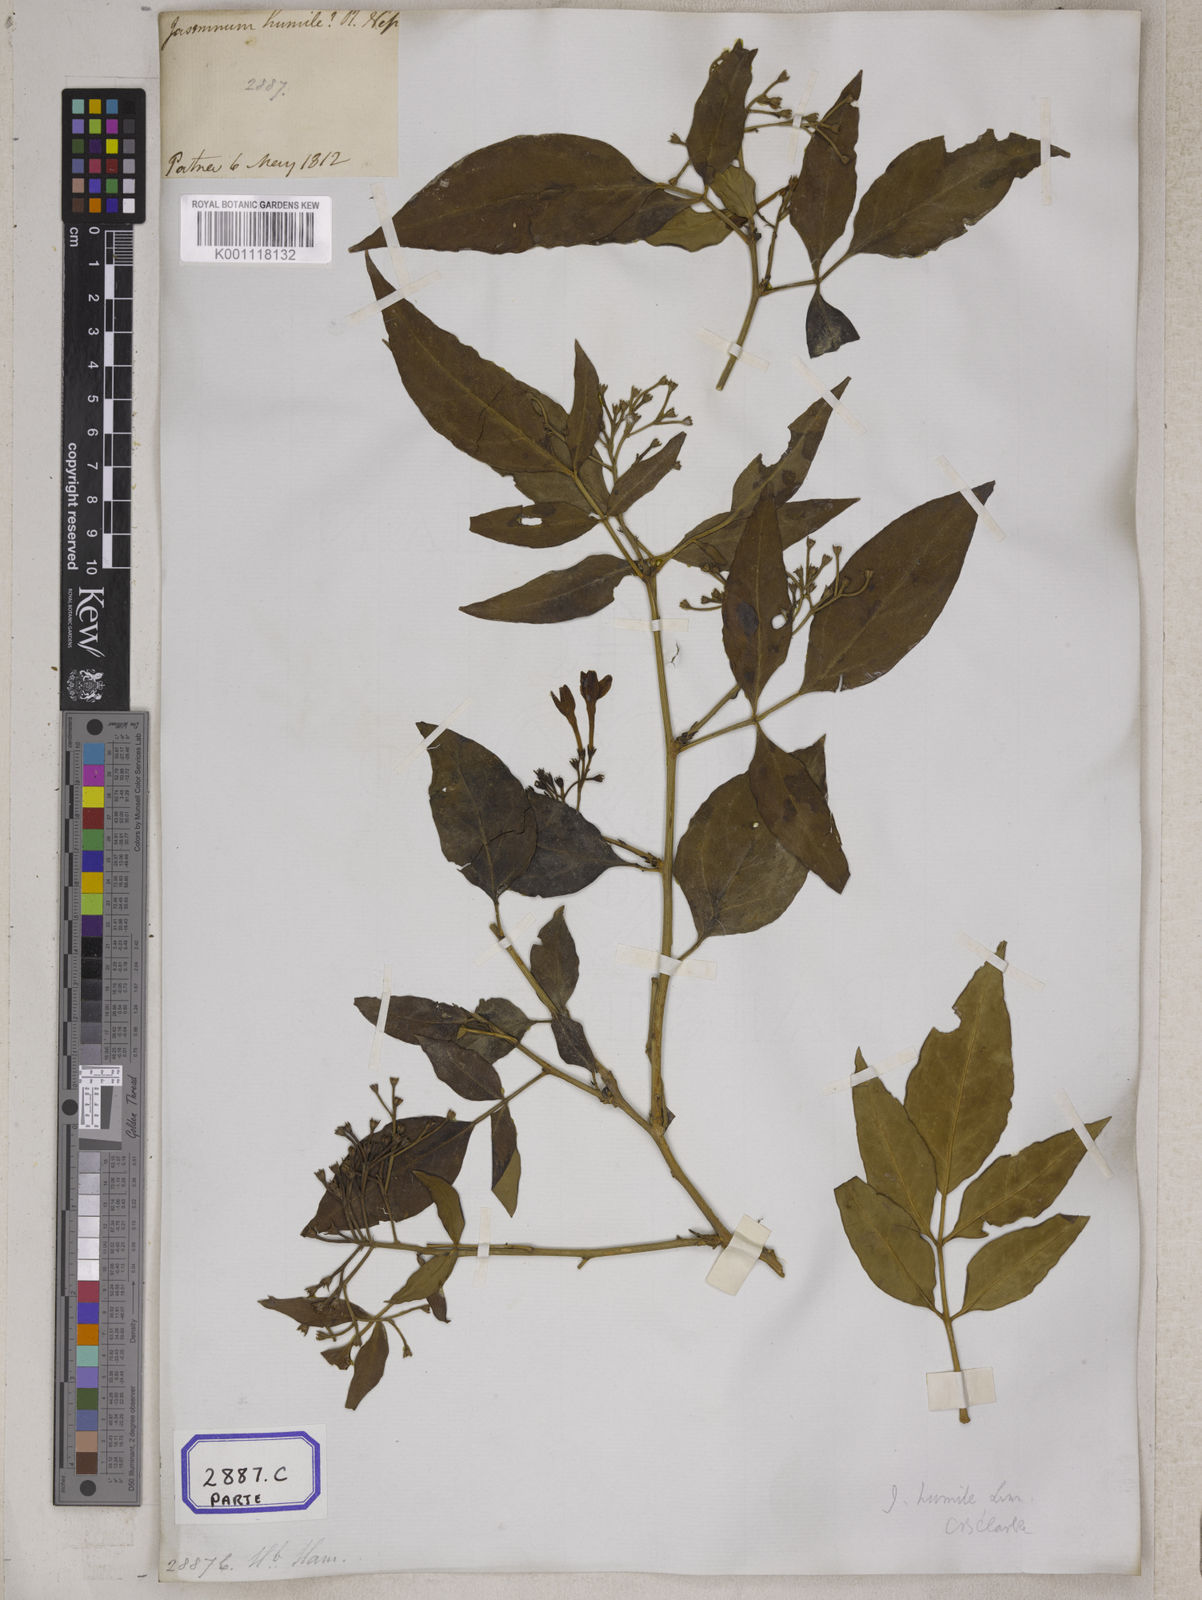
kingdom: Plantae
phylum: Tracheophyta
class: Magnoliopsida
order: Lamiales
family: Oleaceae
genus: Chrysojasminum
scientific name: Chrysojasminum humile
